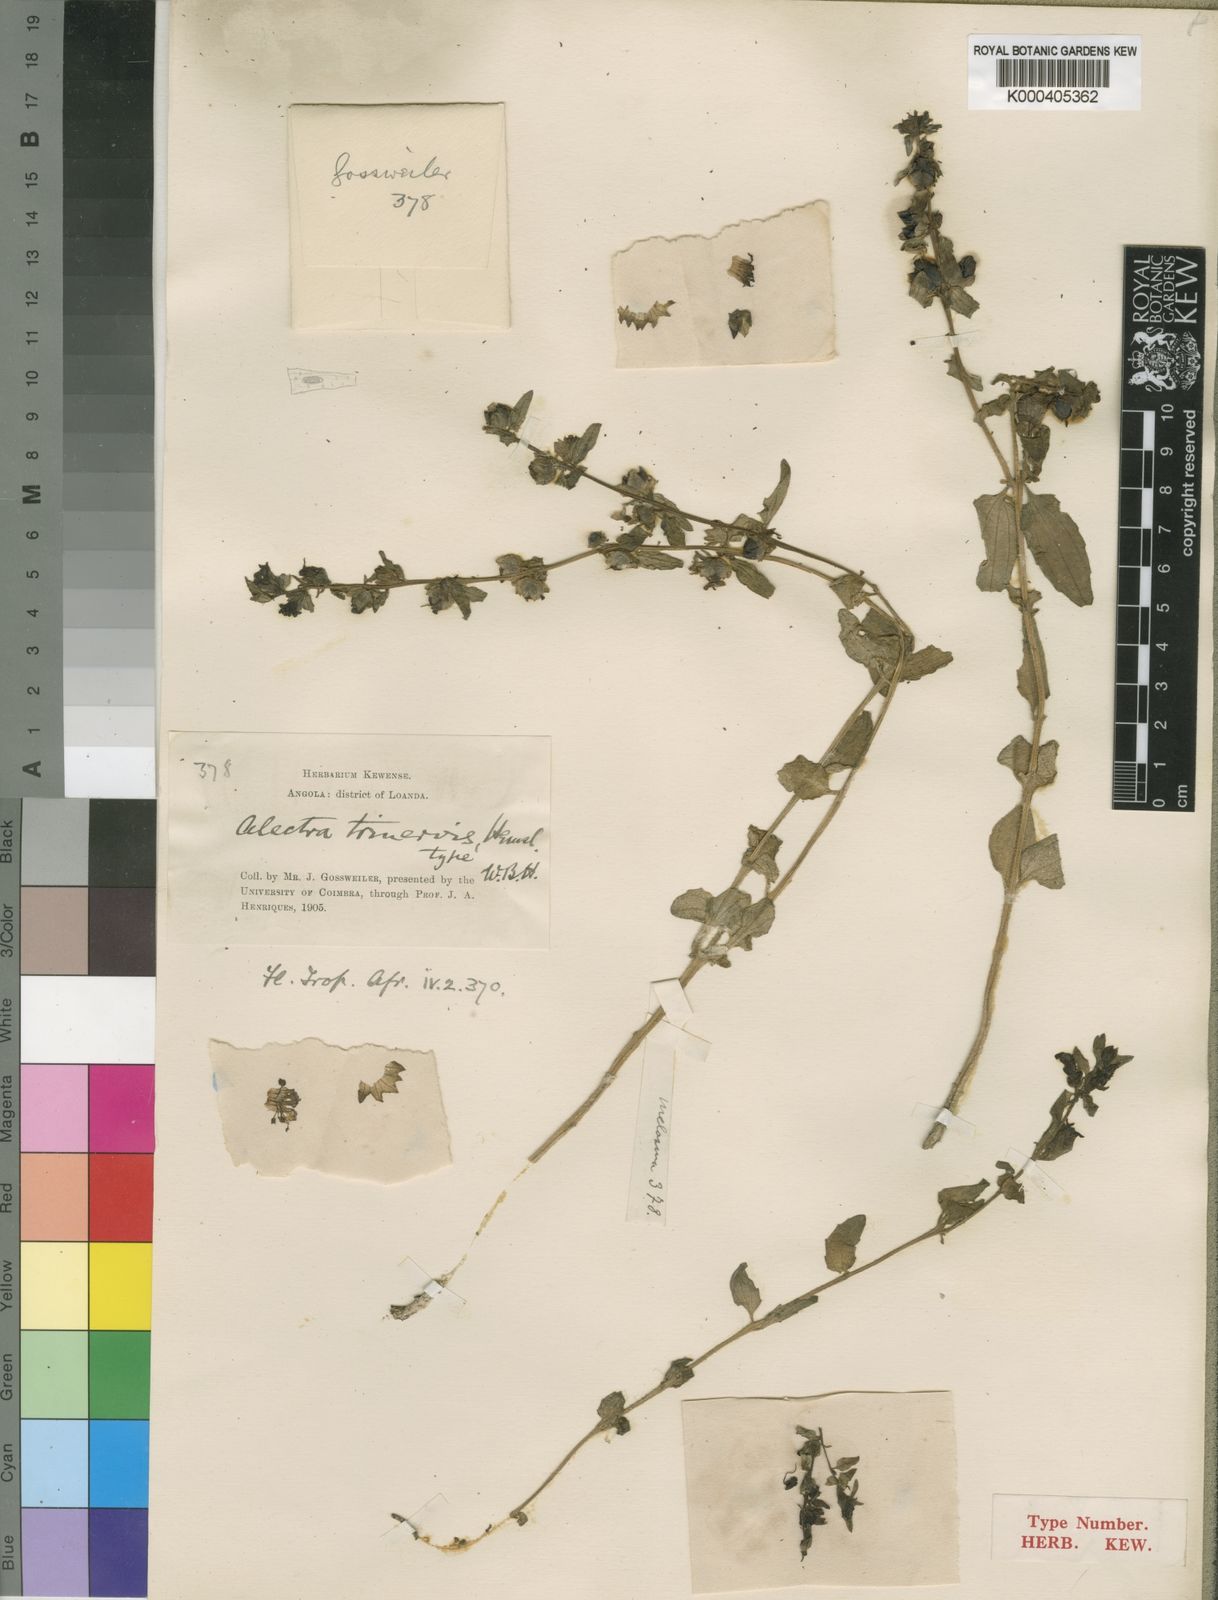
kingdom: Plantae
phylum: Tracheophyta
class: Magnoliopsida
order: Lamiales
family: Orobanchaceae
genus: Alectra
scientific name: Alectra sessiliflora
